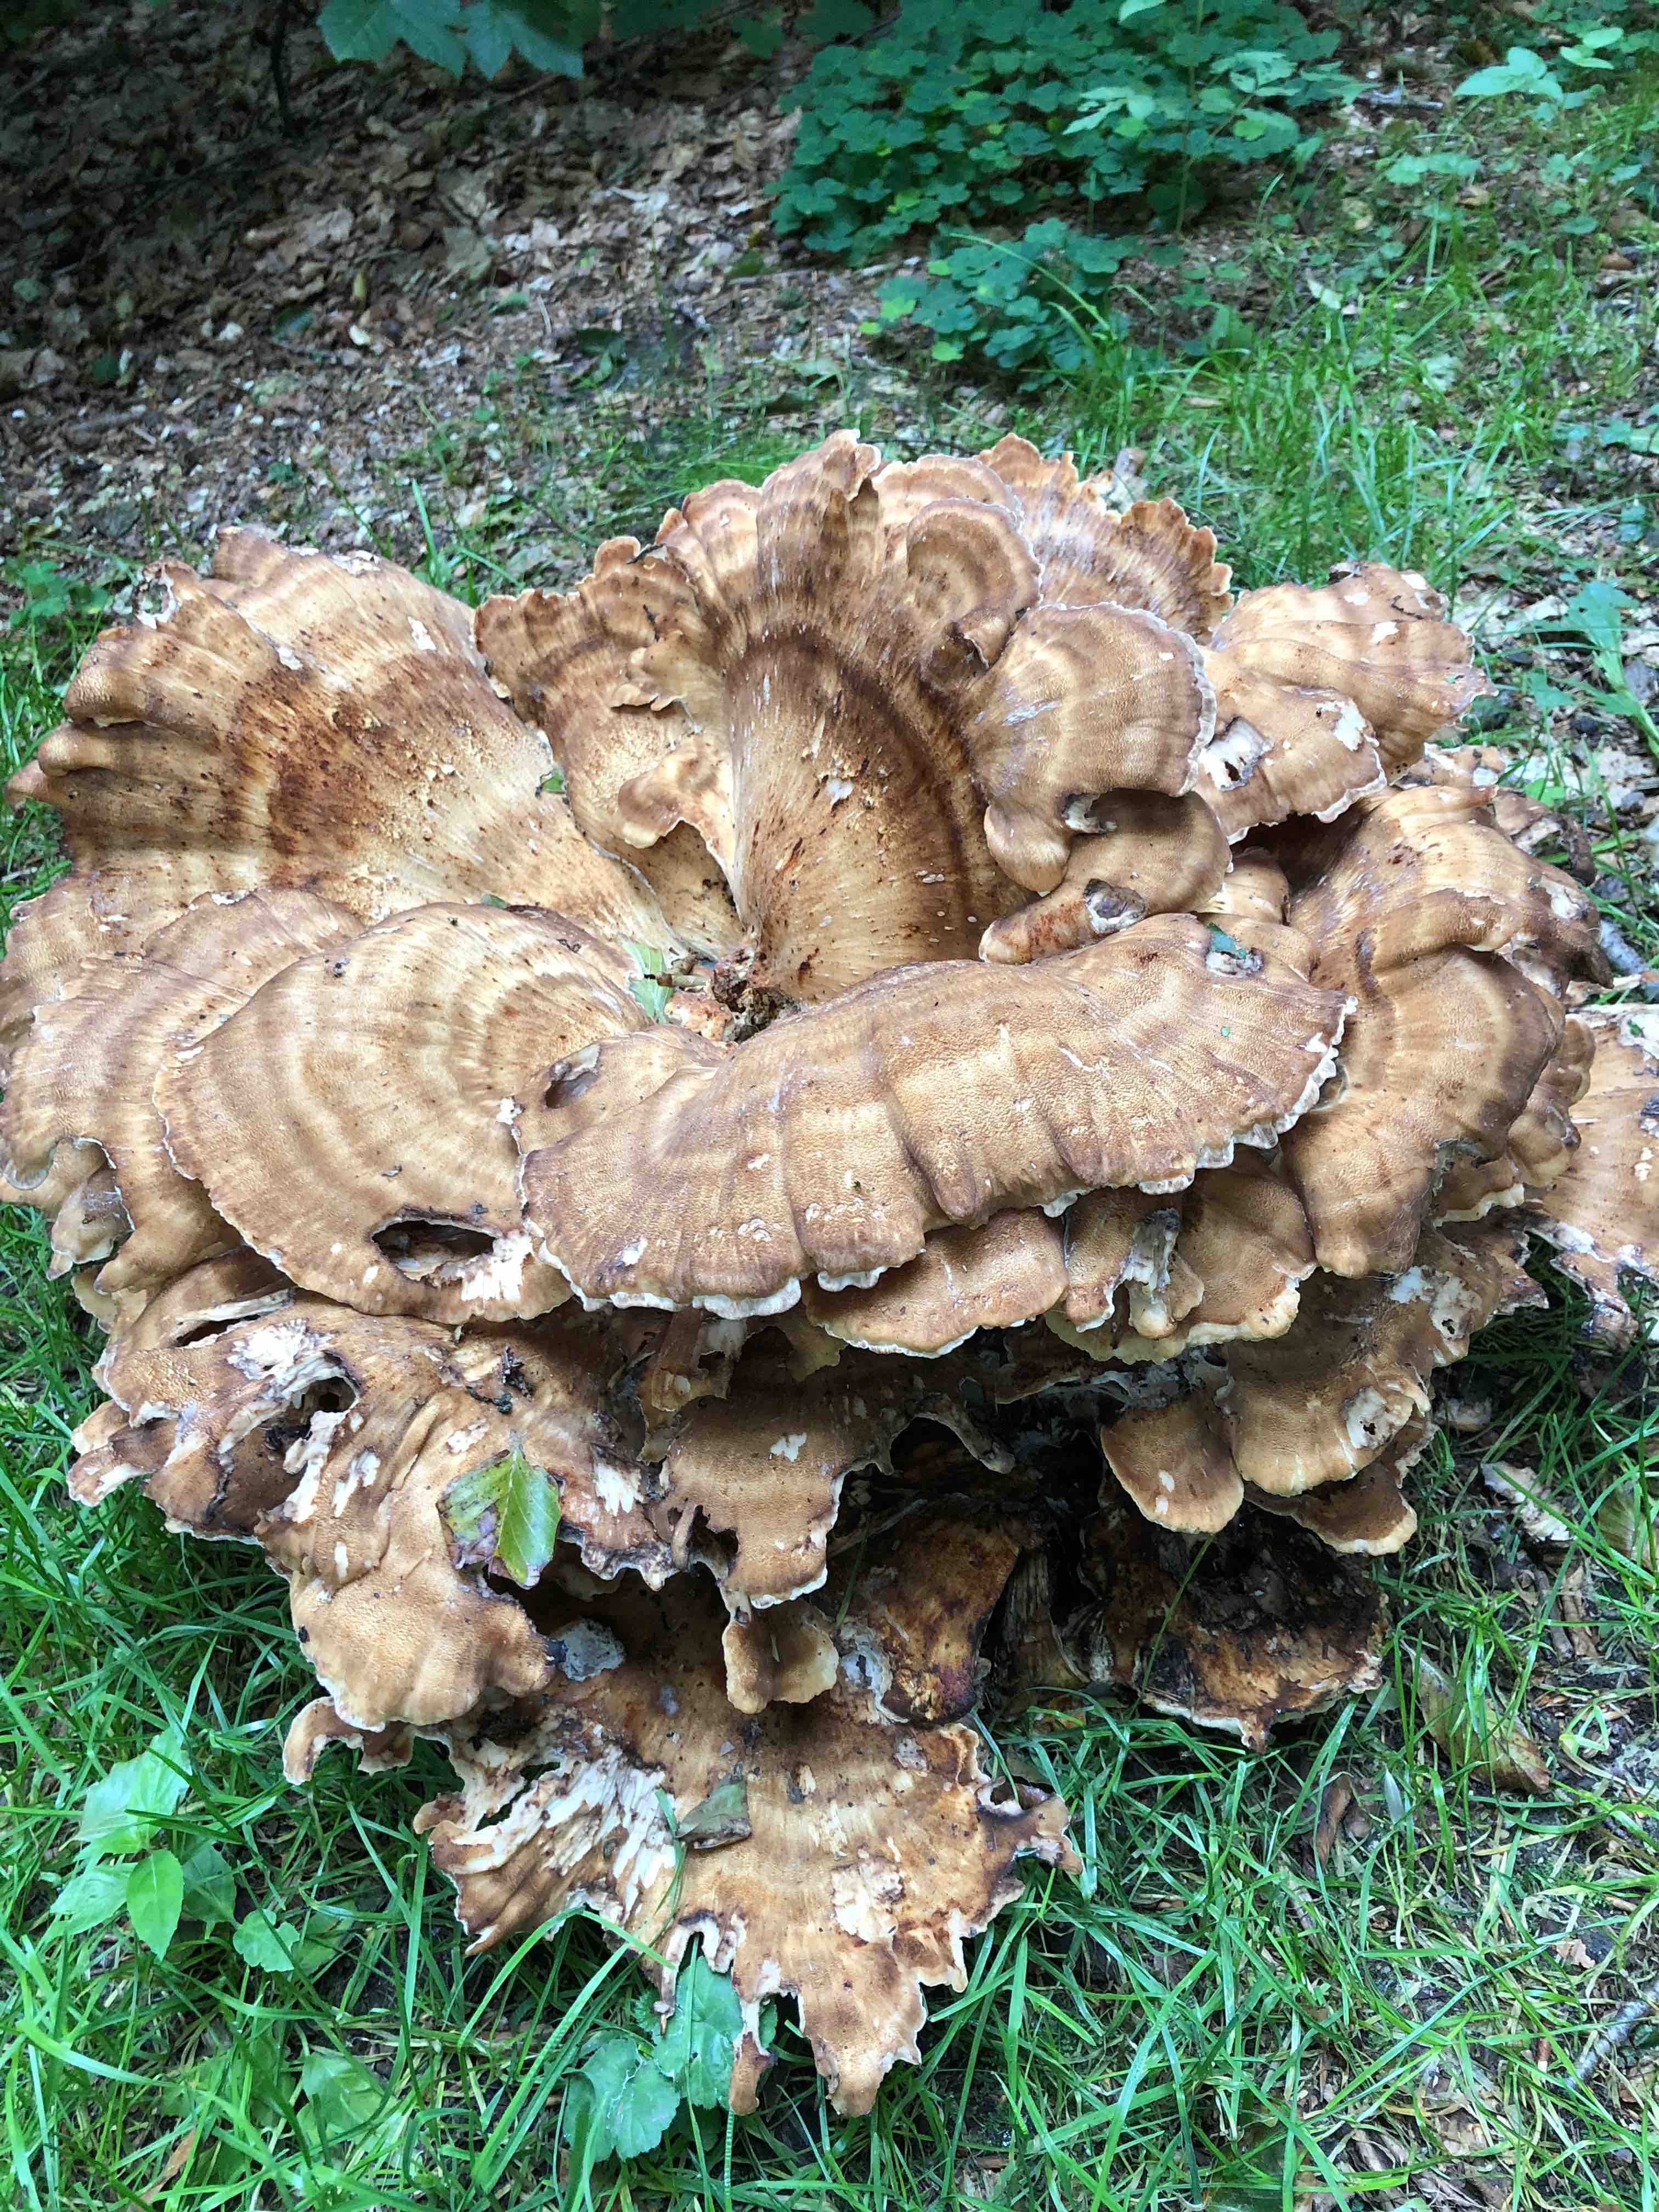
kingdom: Fungi
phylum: Basidiomycota
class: Agaricomycetes
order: Polyporales
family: Meripilaceae
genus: Meripilus
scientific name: Meripilus giganteus
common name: kæmpeporesvamp
